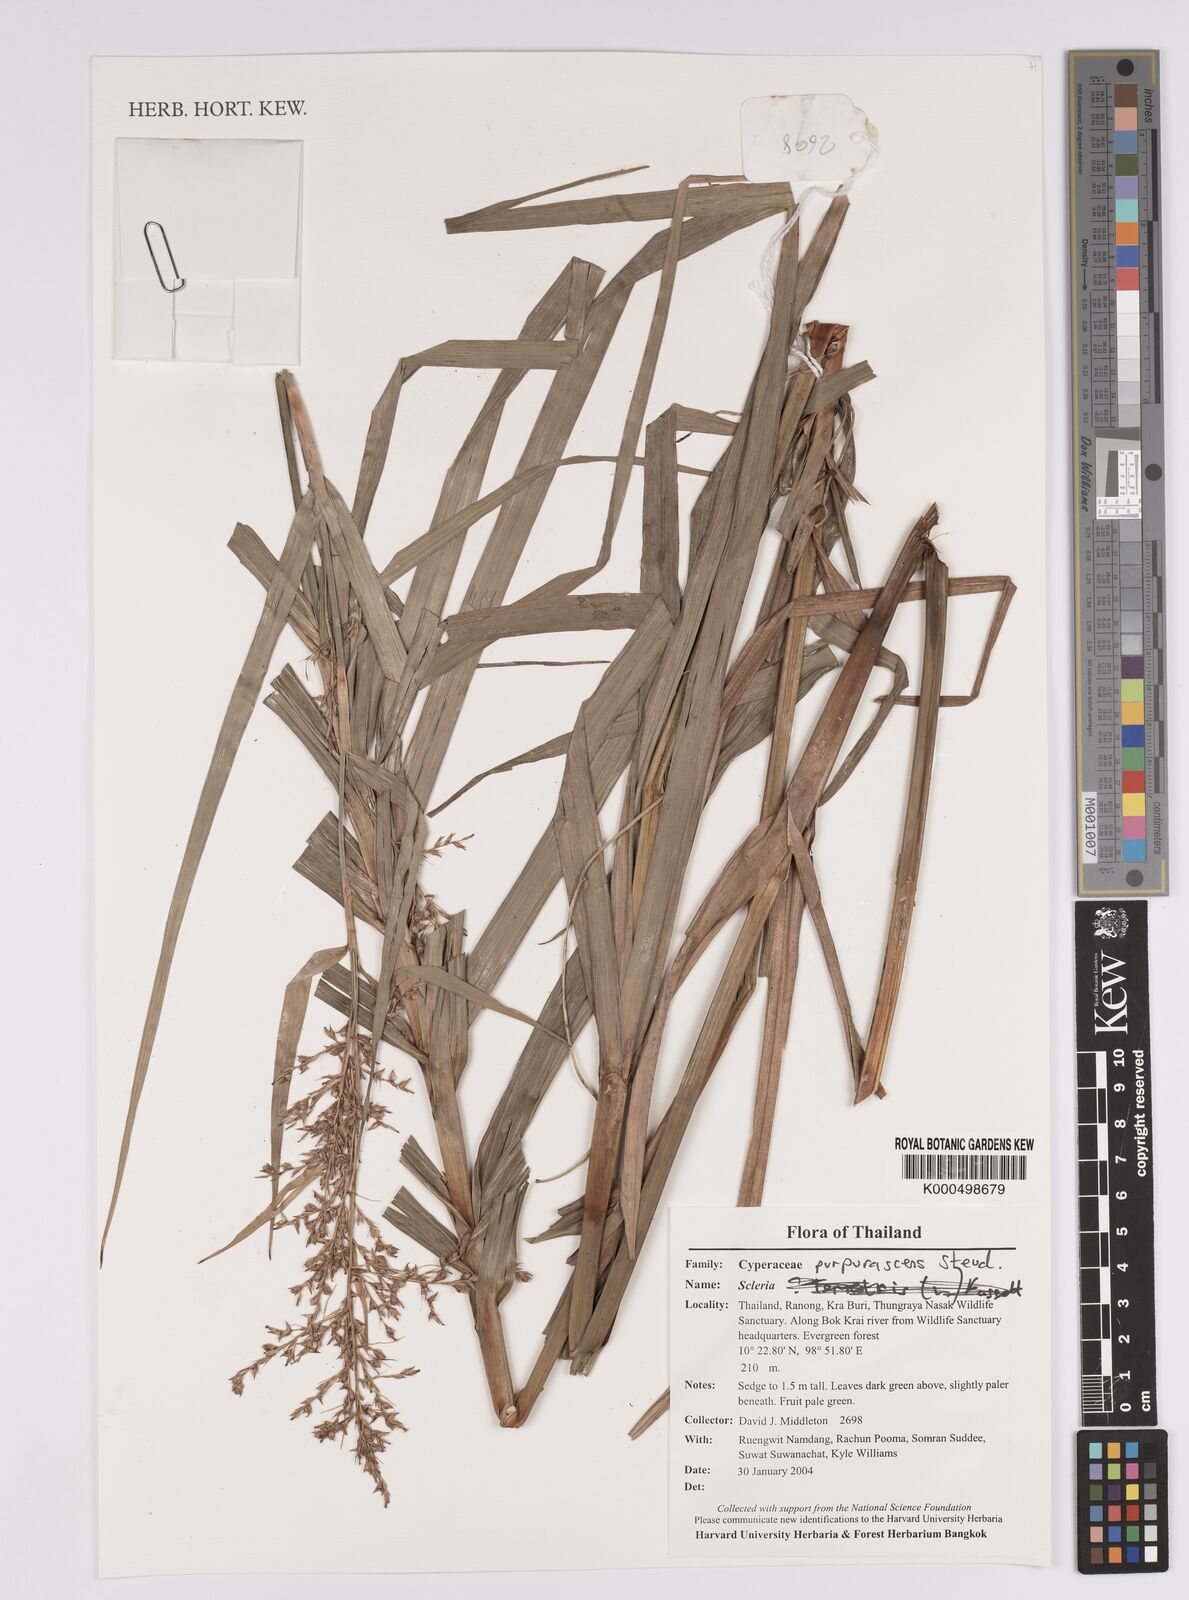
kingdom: Plantae
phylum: Tracheophyta
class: Liliopsida
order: Poales
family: Cyperaceae
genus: Scleria
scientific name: Scleria purpurascens
